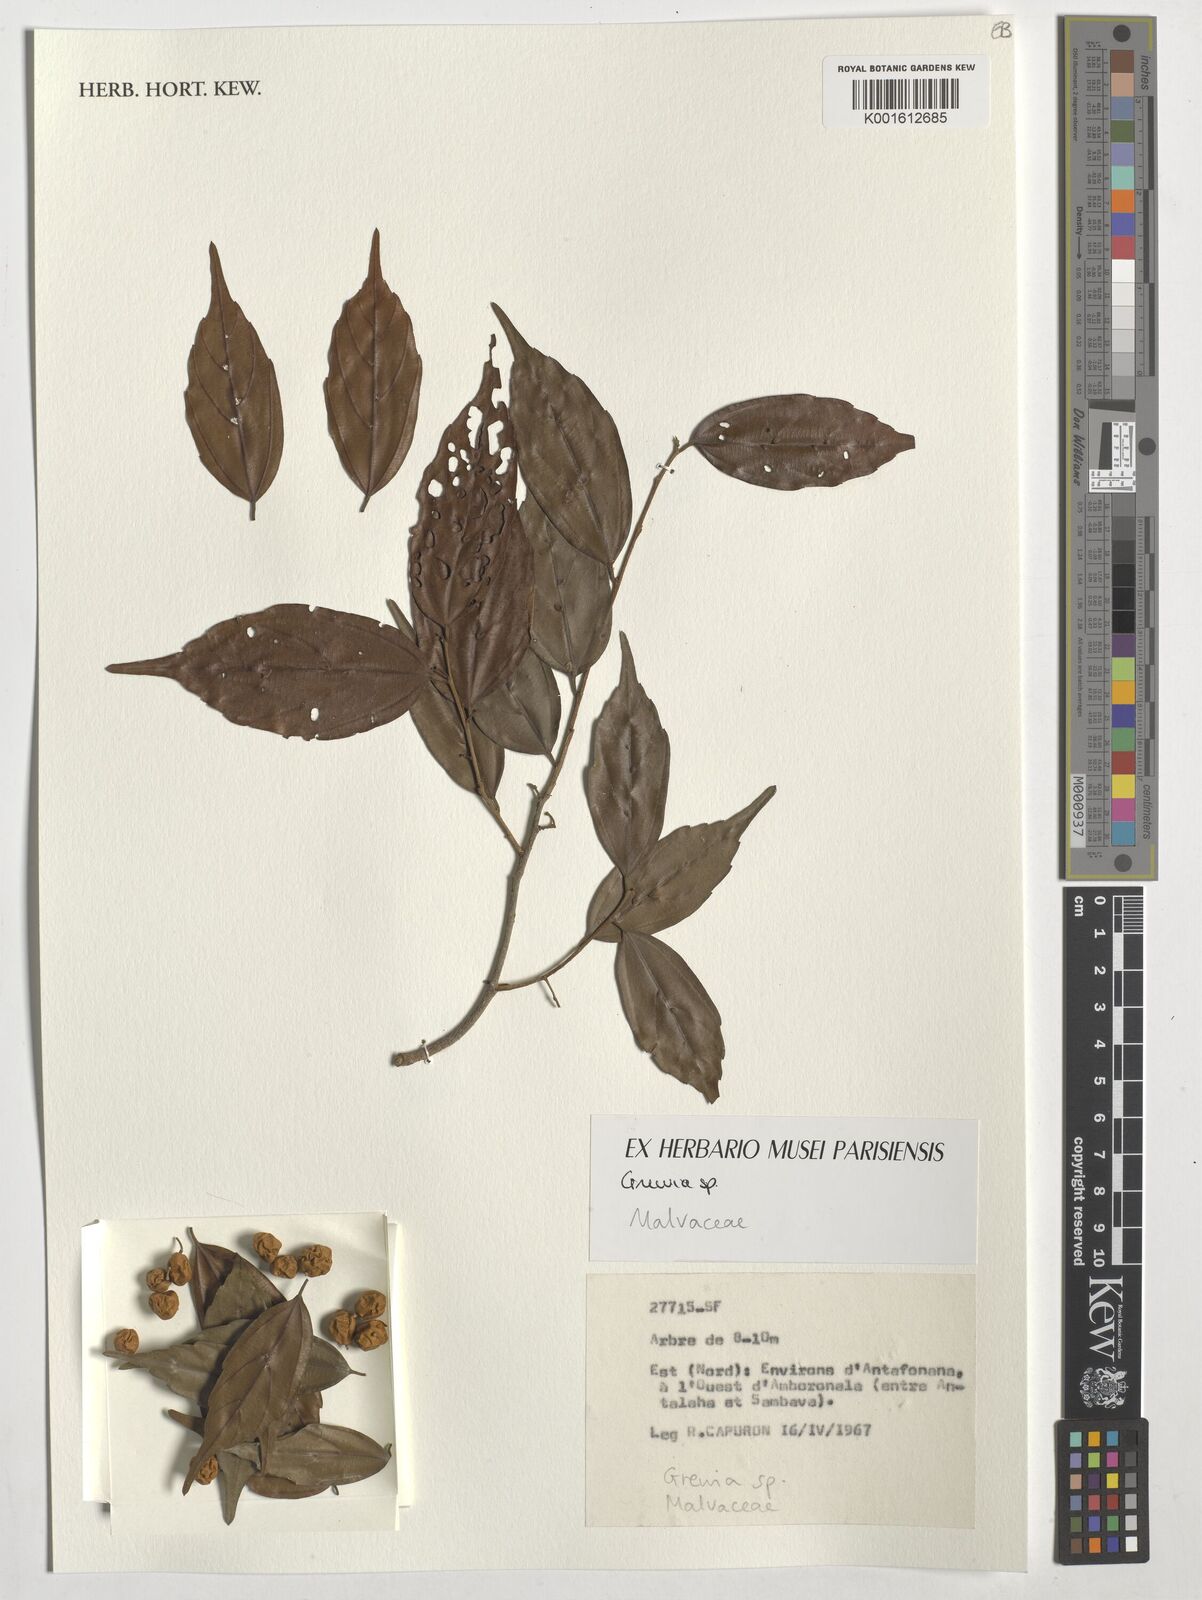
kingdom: Plantae
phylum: Tracheophyta
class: Magnoliopsida
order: Malvales
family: Malvaceae
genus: Grewia
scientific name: Grewia
